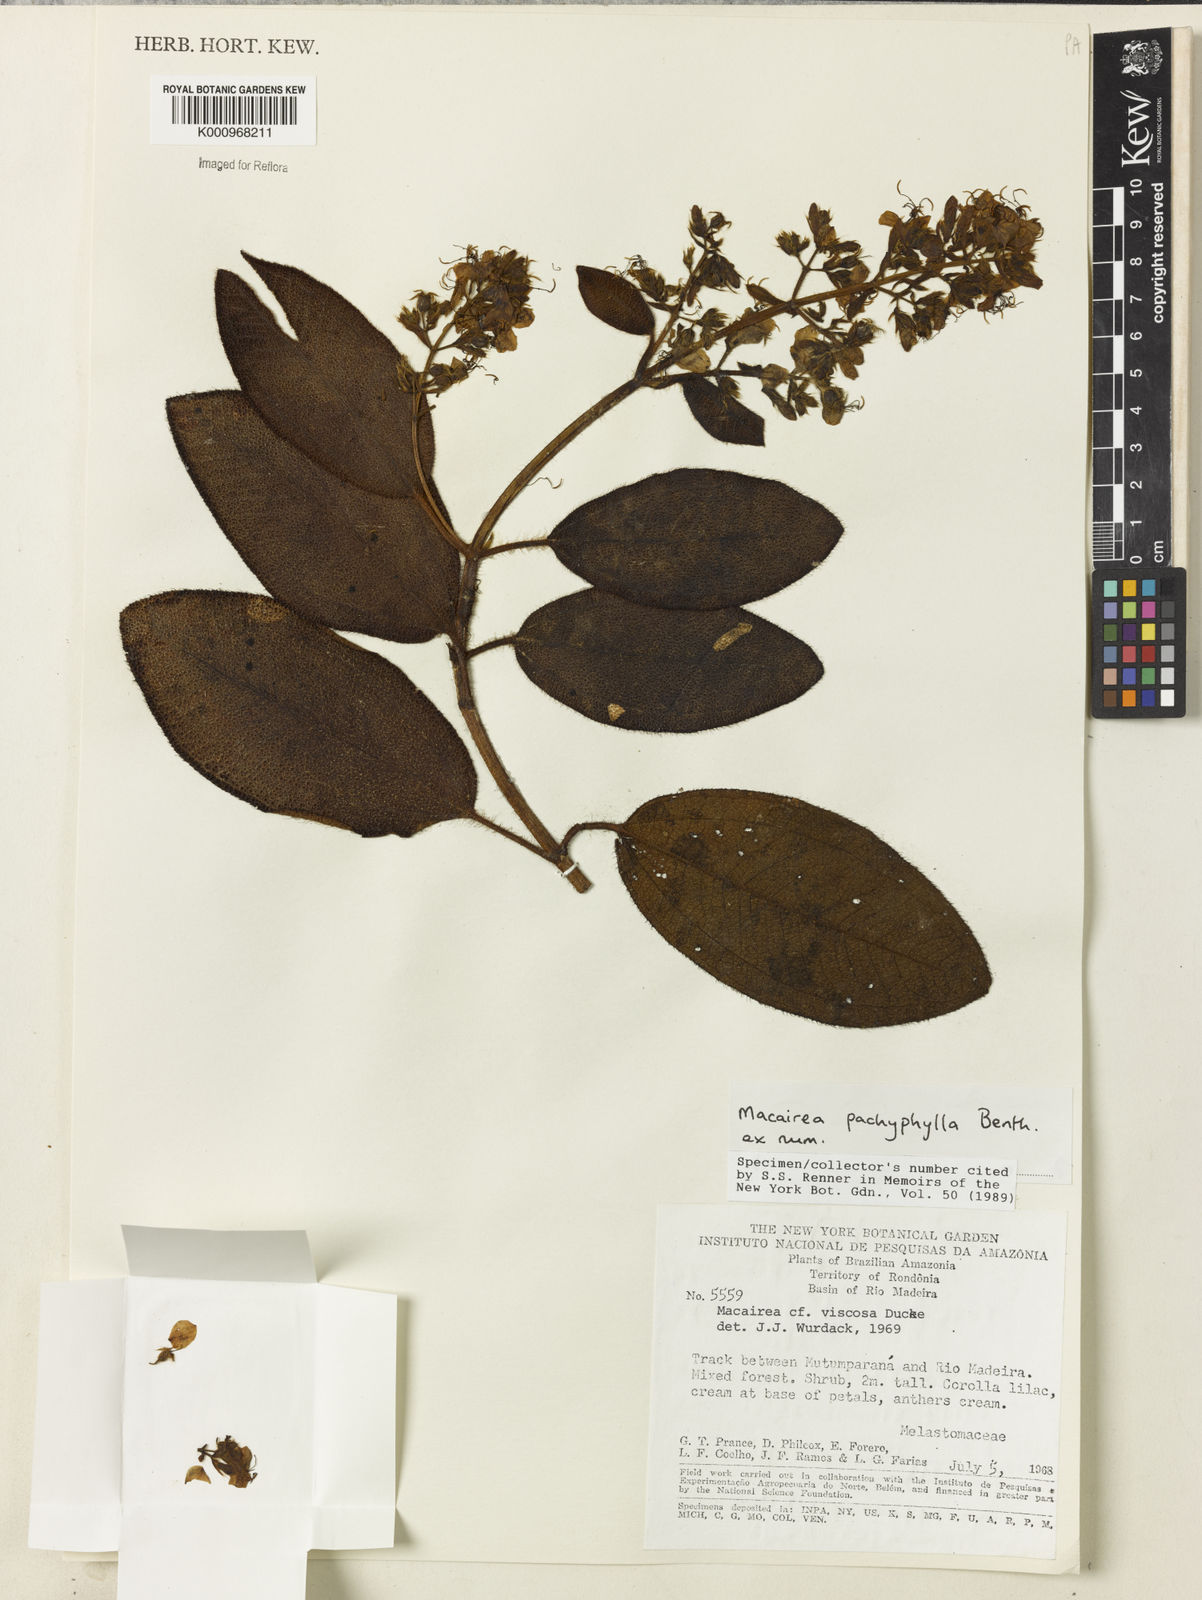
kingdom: Plantae
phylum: Tracheophyta
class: Magnoliopsida
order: Myrtales
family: Melastomataceae
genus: Macairea
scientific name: Macairea pachyphylla
